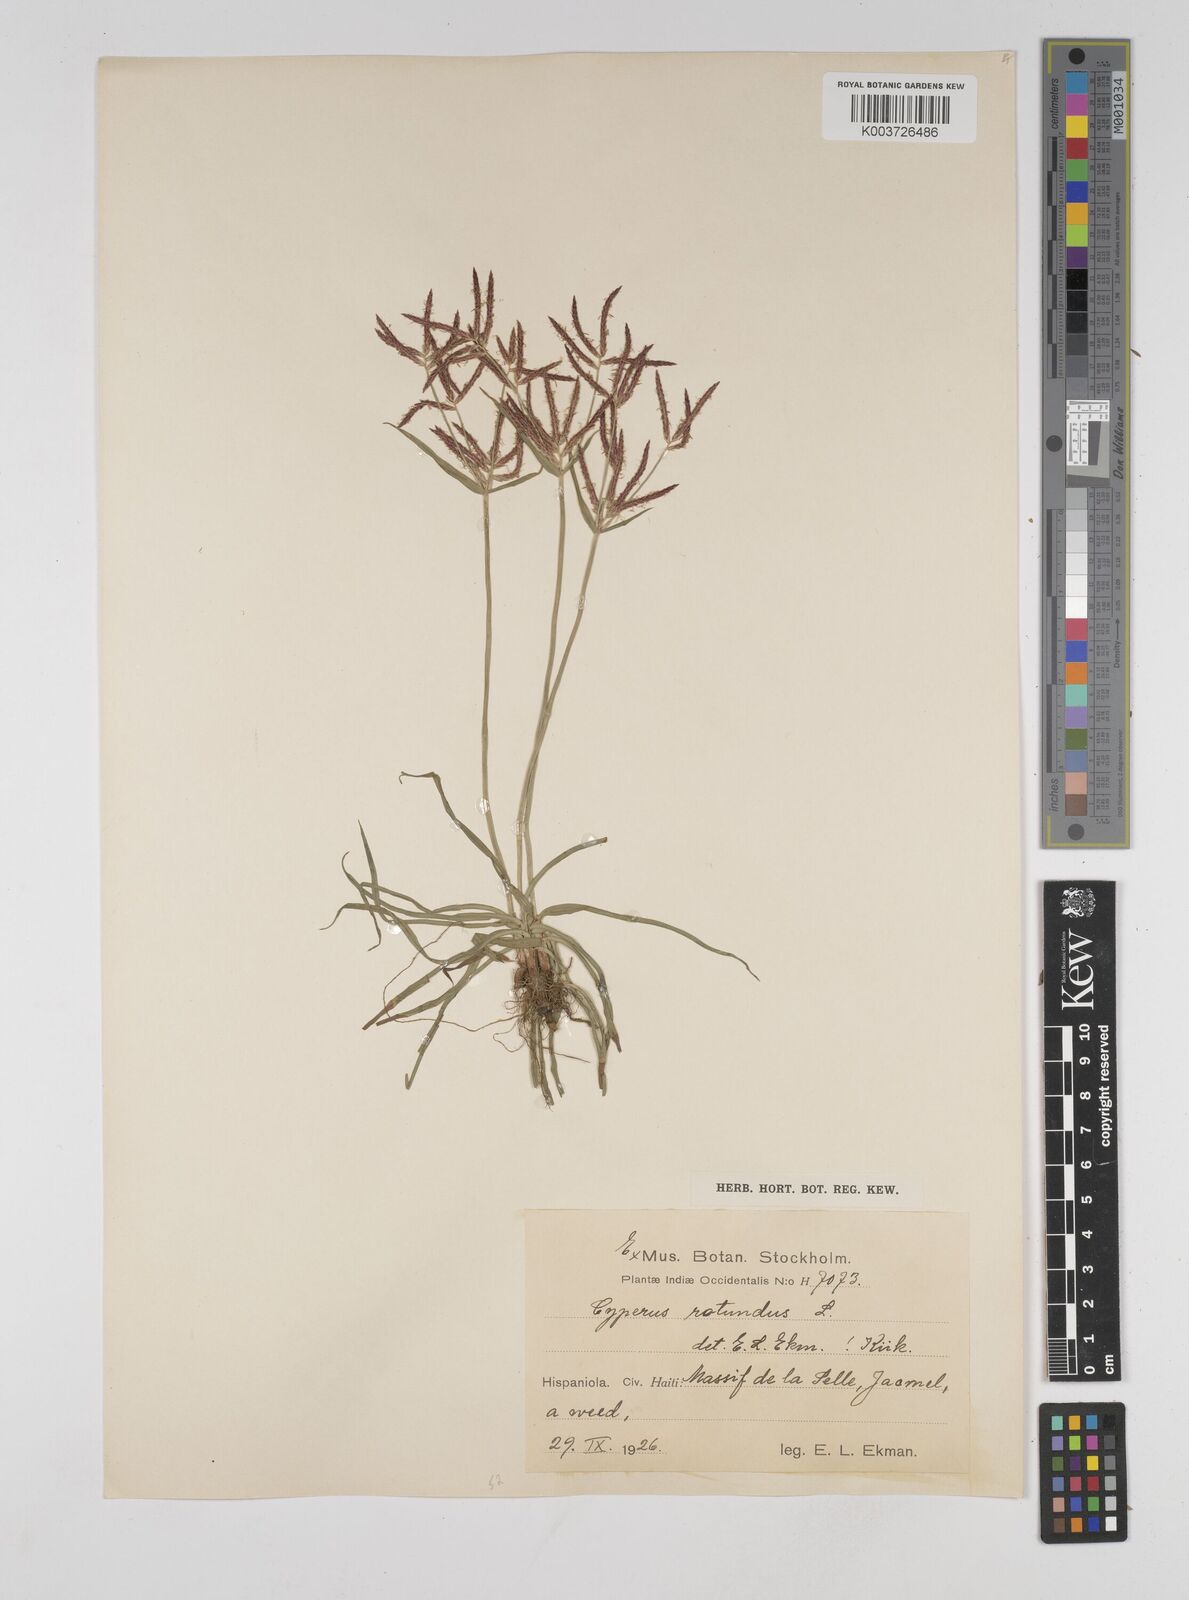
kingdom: Plantae
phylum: Tracheophyta
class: Liliopsida
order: Poales
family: Cyperaceae
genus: Cyperus
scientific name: Cyperus rotundus
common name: Nutgrass
